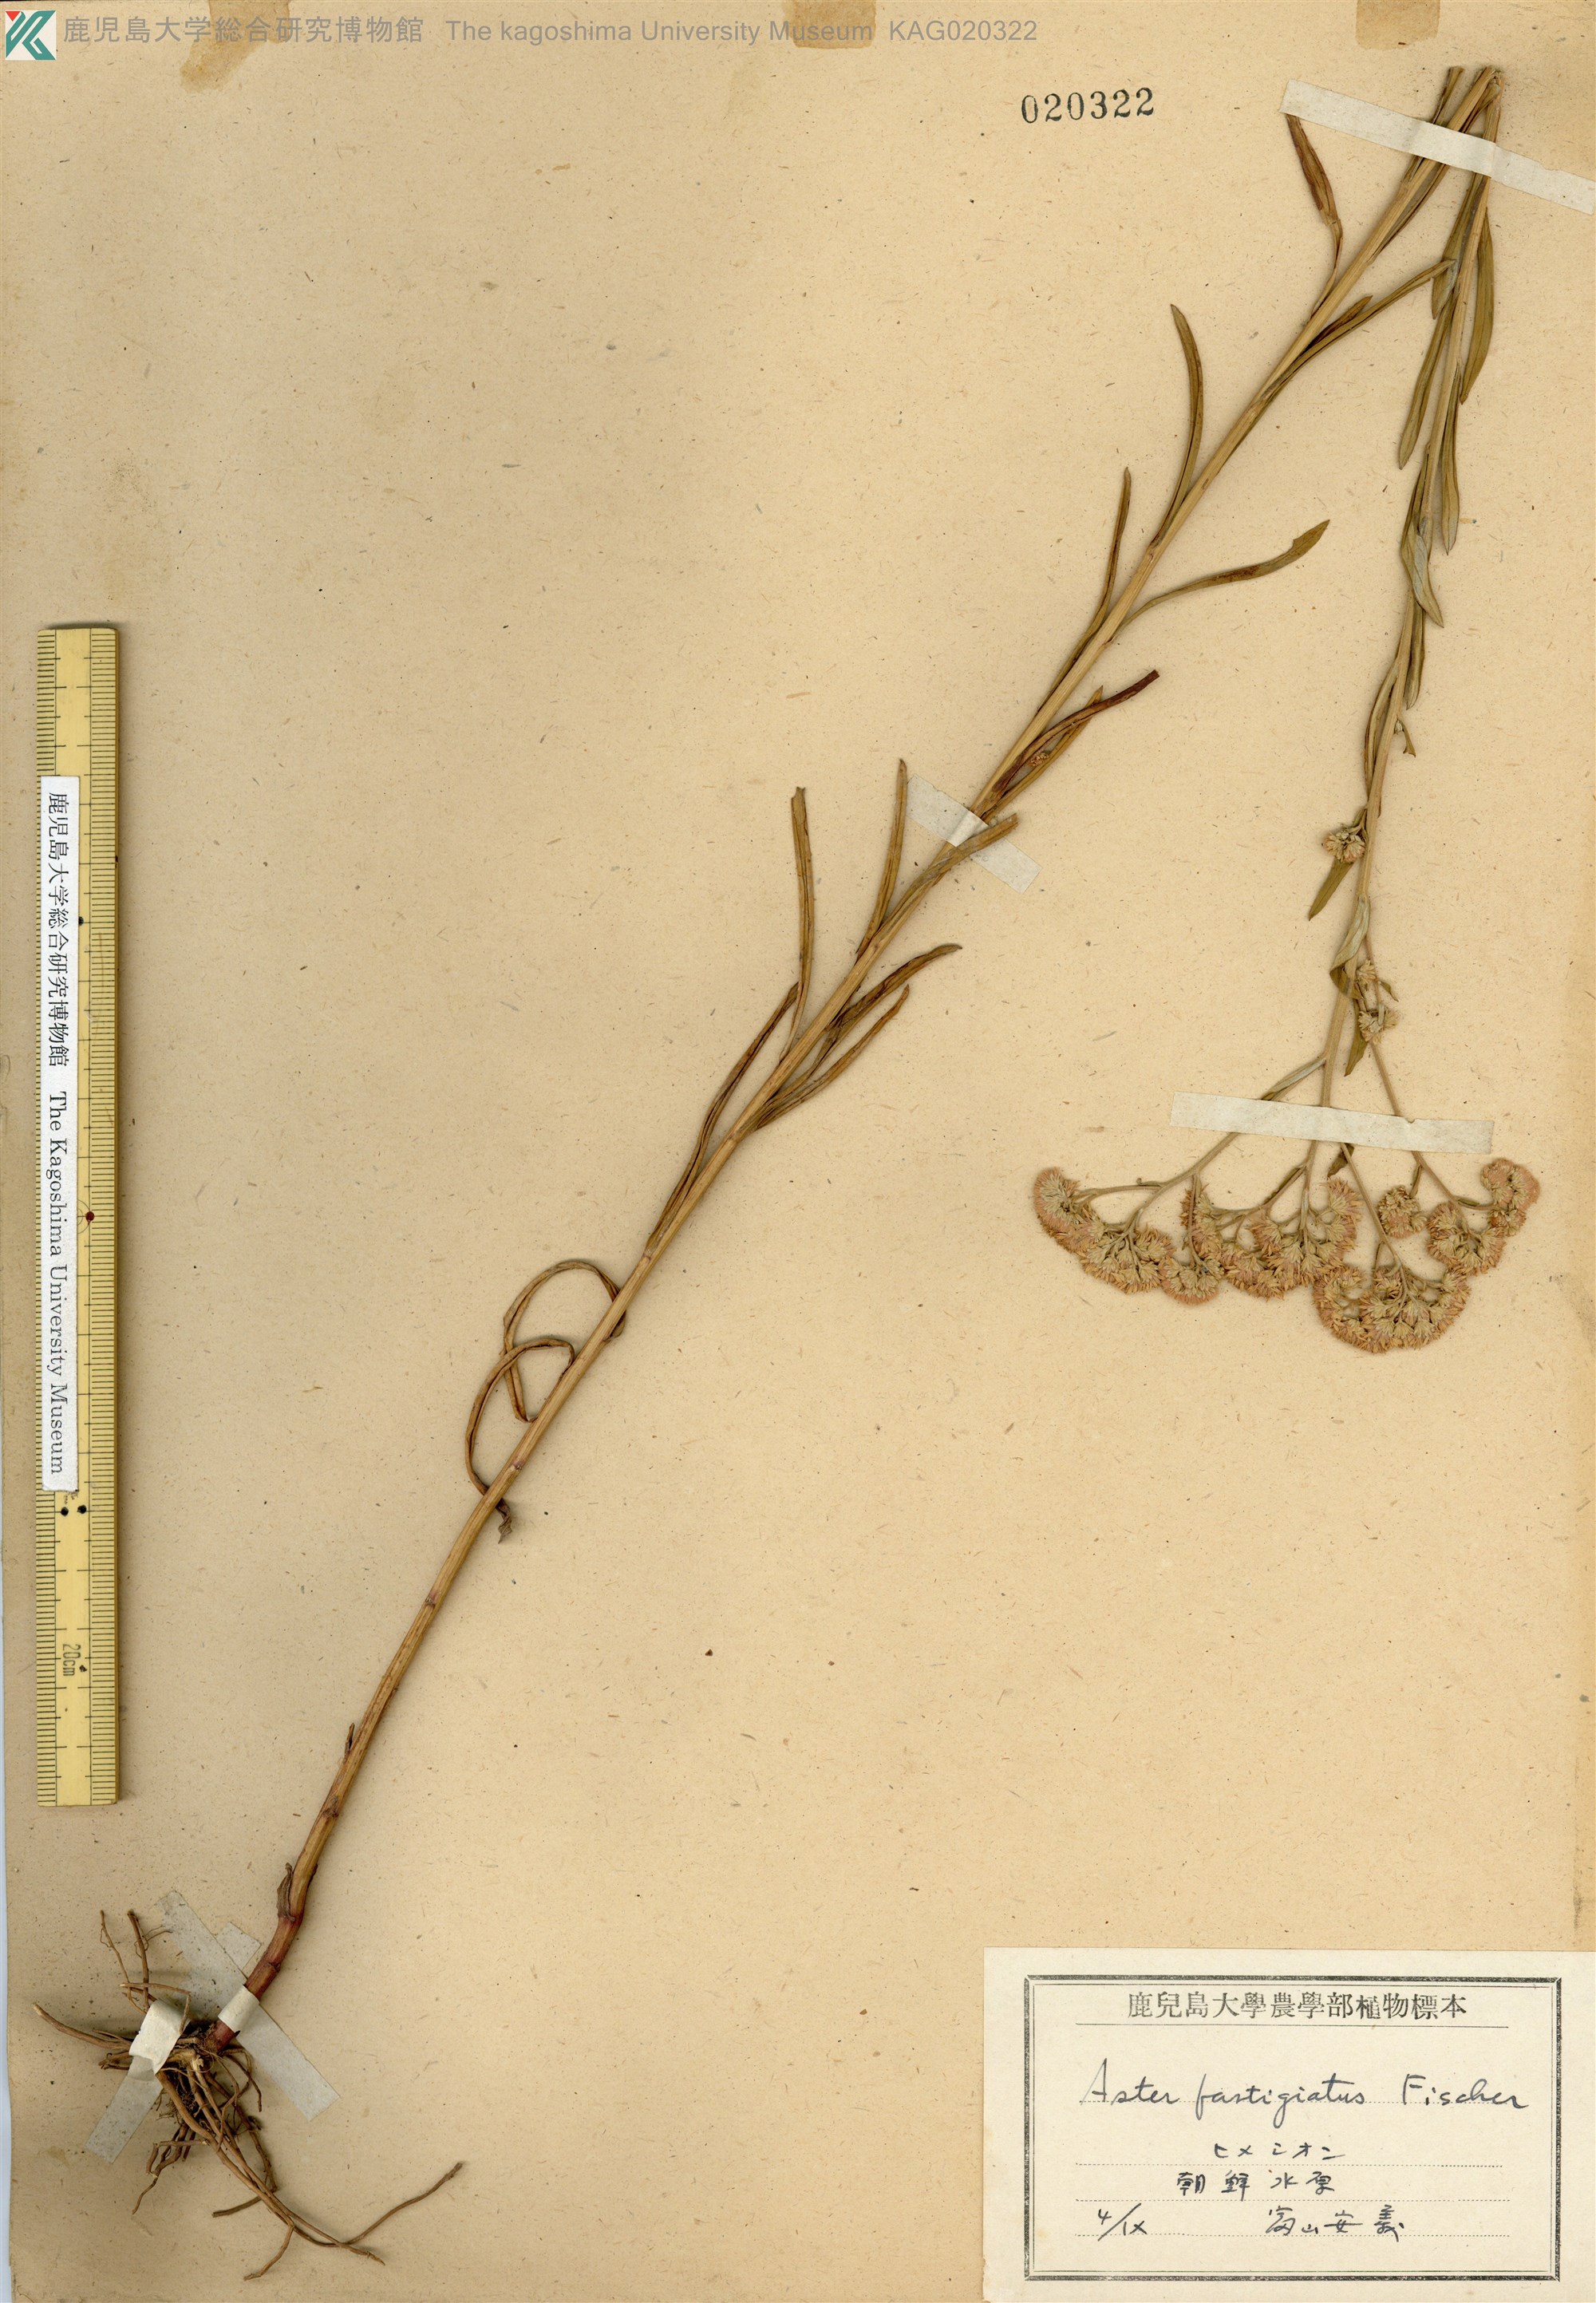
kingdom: Plantae
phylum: Tracheophyta
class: Magnoliopsida
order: Asterales
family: Asteraceae
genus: Turczaninovia
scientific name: Turczaninovia fastigiata
